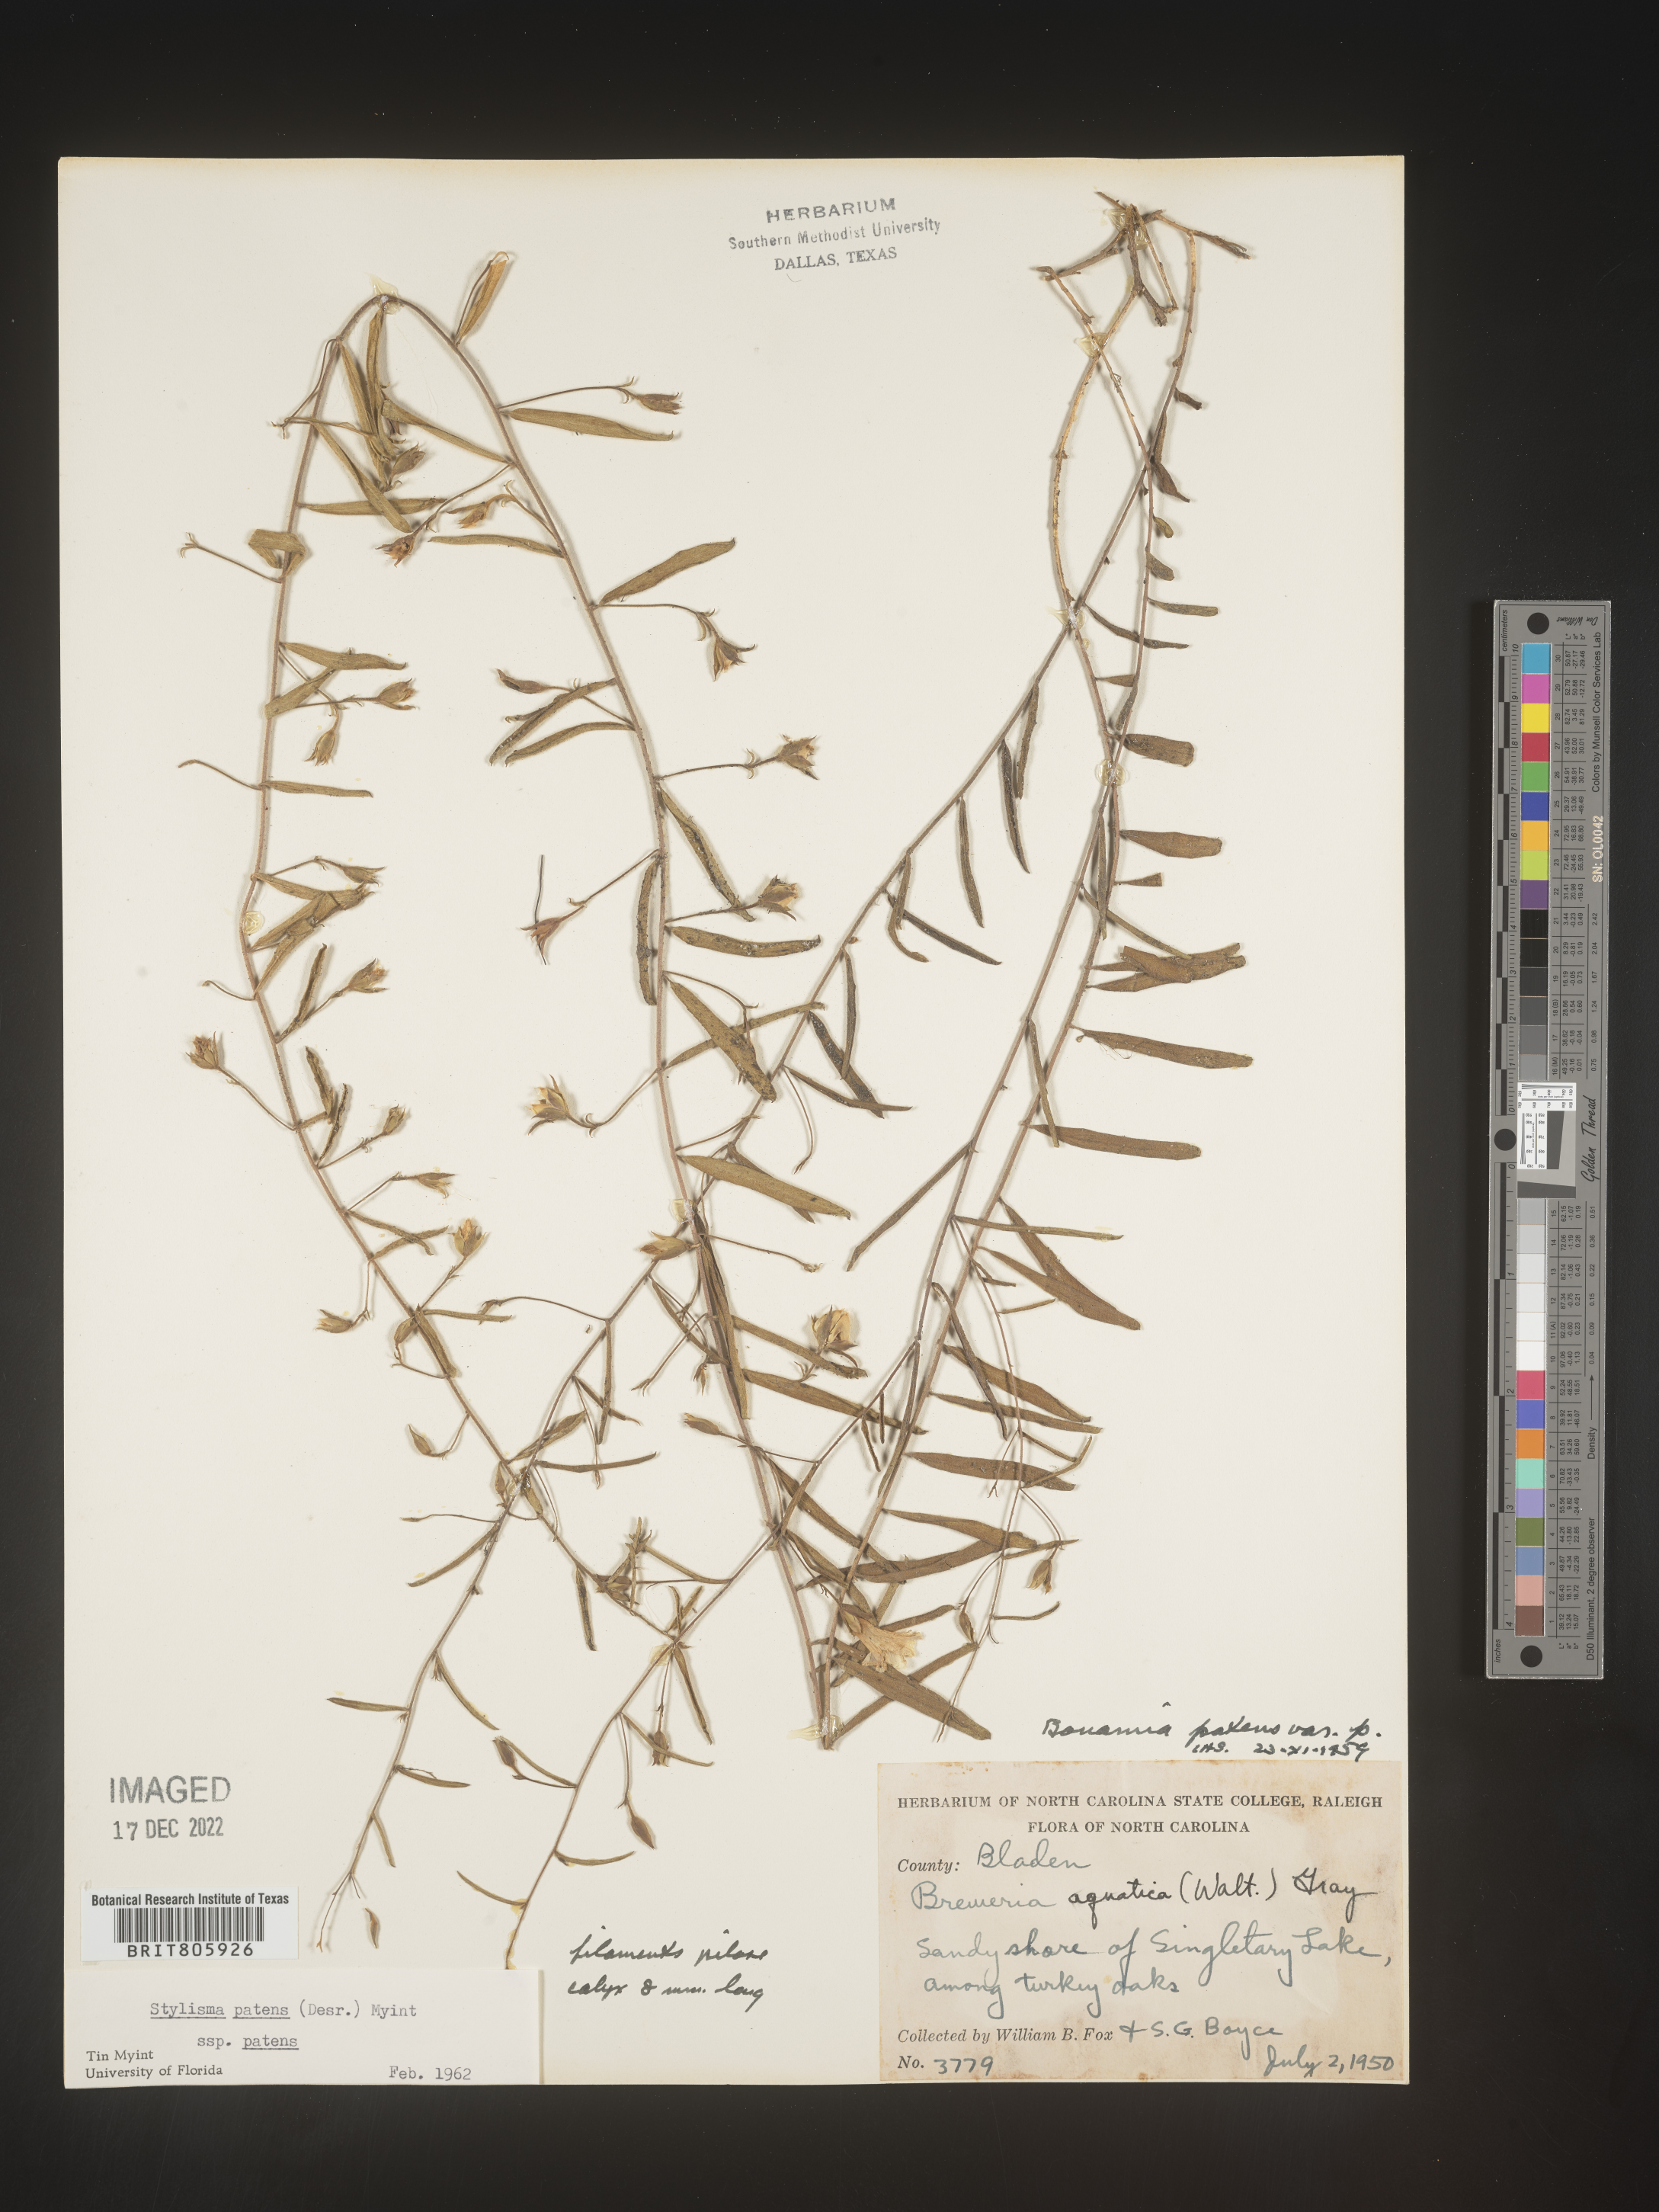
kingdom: Plantae
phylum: Tracheophyta
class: Magnoliopsida
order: Solanales
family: Convolvulaceae
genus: Stylisma
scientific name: Stylisma
